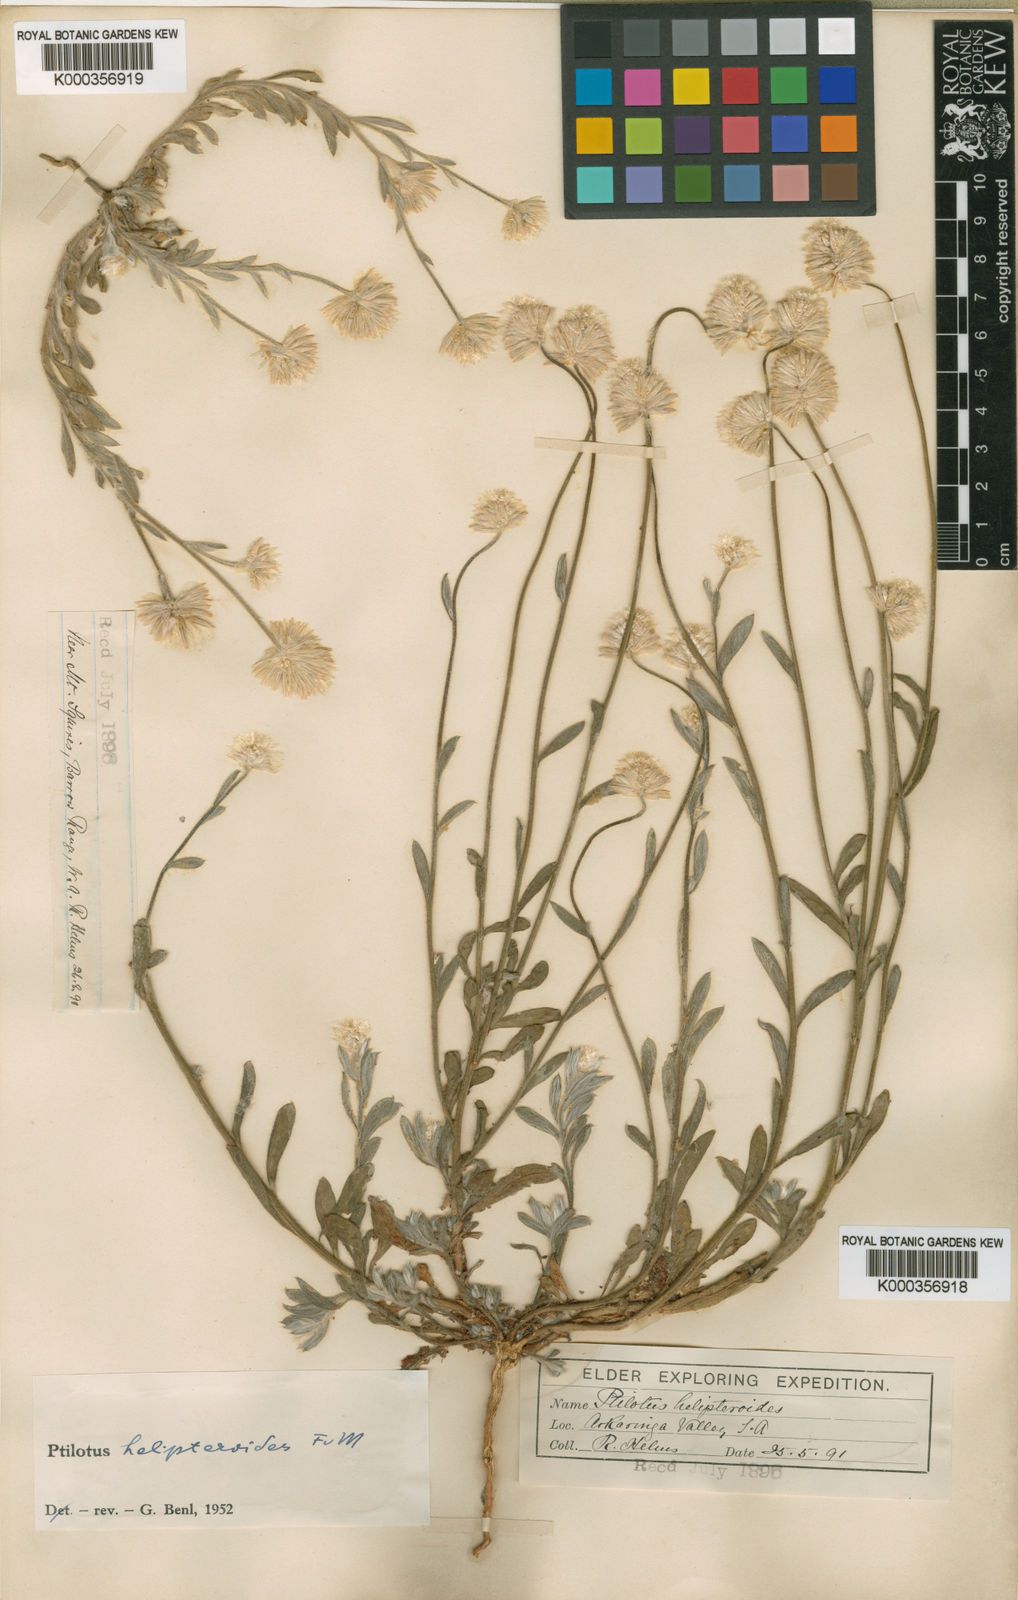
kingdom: Plantae
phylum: Tracheophyta
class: Magnoliopsida
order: Caryophyllales
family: Amaranthaceae
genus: Ptilotus
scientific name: Ptilotus helipteroides
